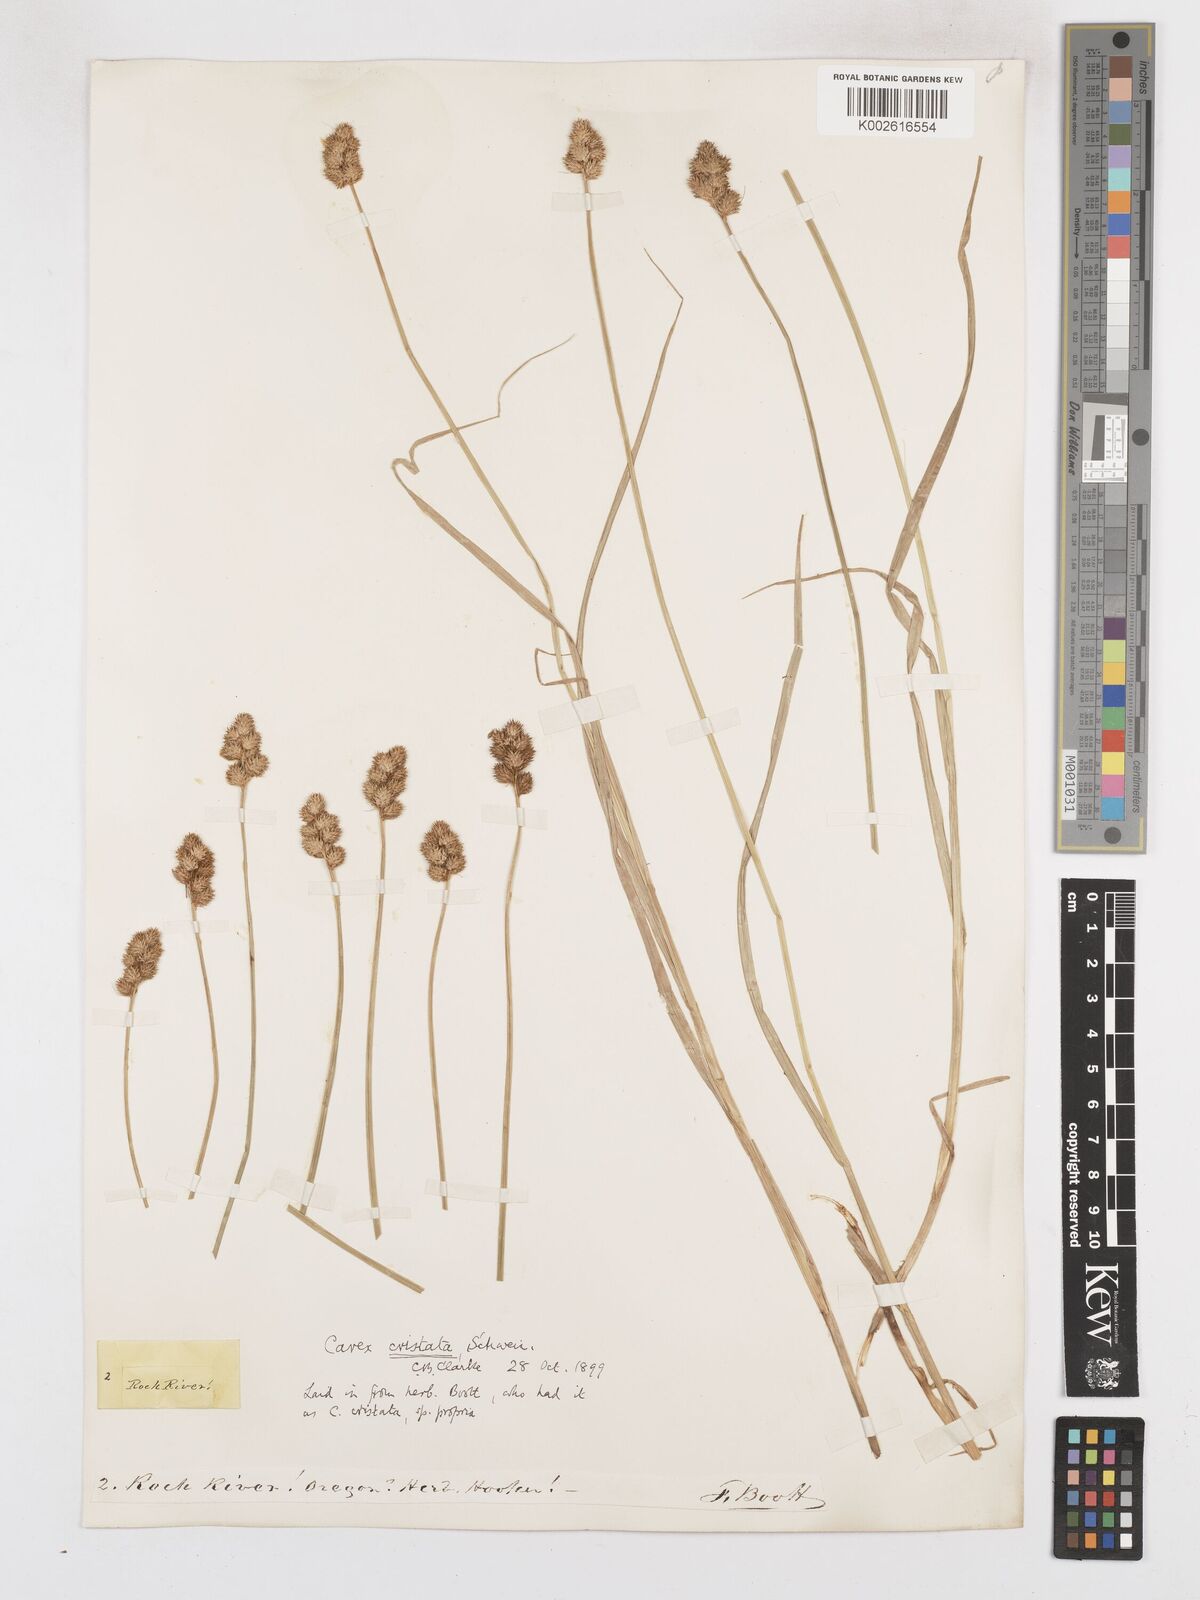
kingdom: Plantae
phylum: Tracheophyta
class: Liliopsida
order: Poales
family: Cyperaceae
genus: Carex
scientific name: Carex cristatella
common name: Crested oval sedge
